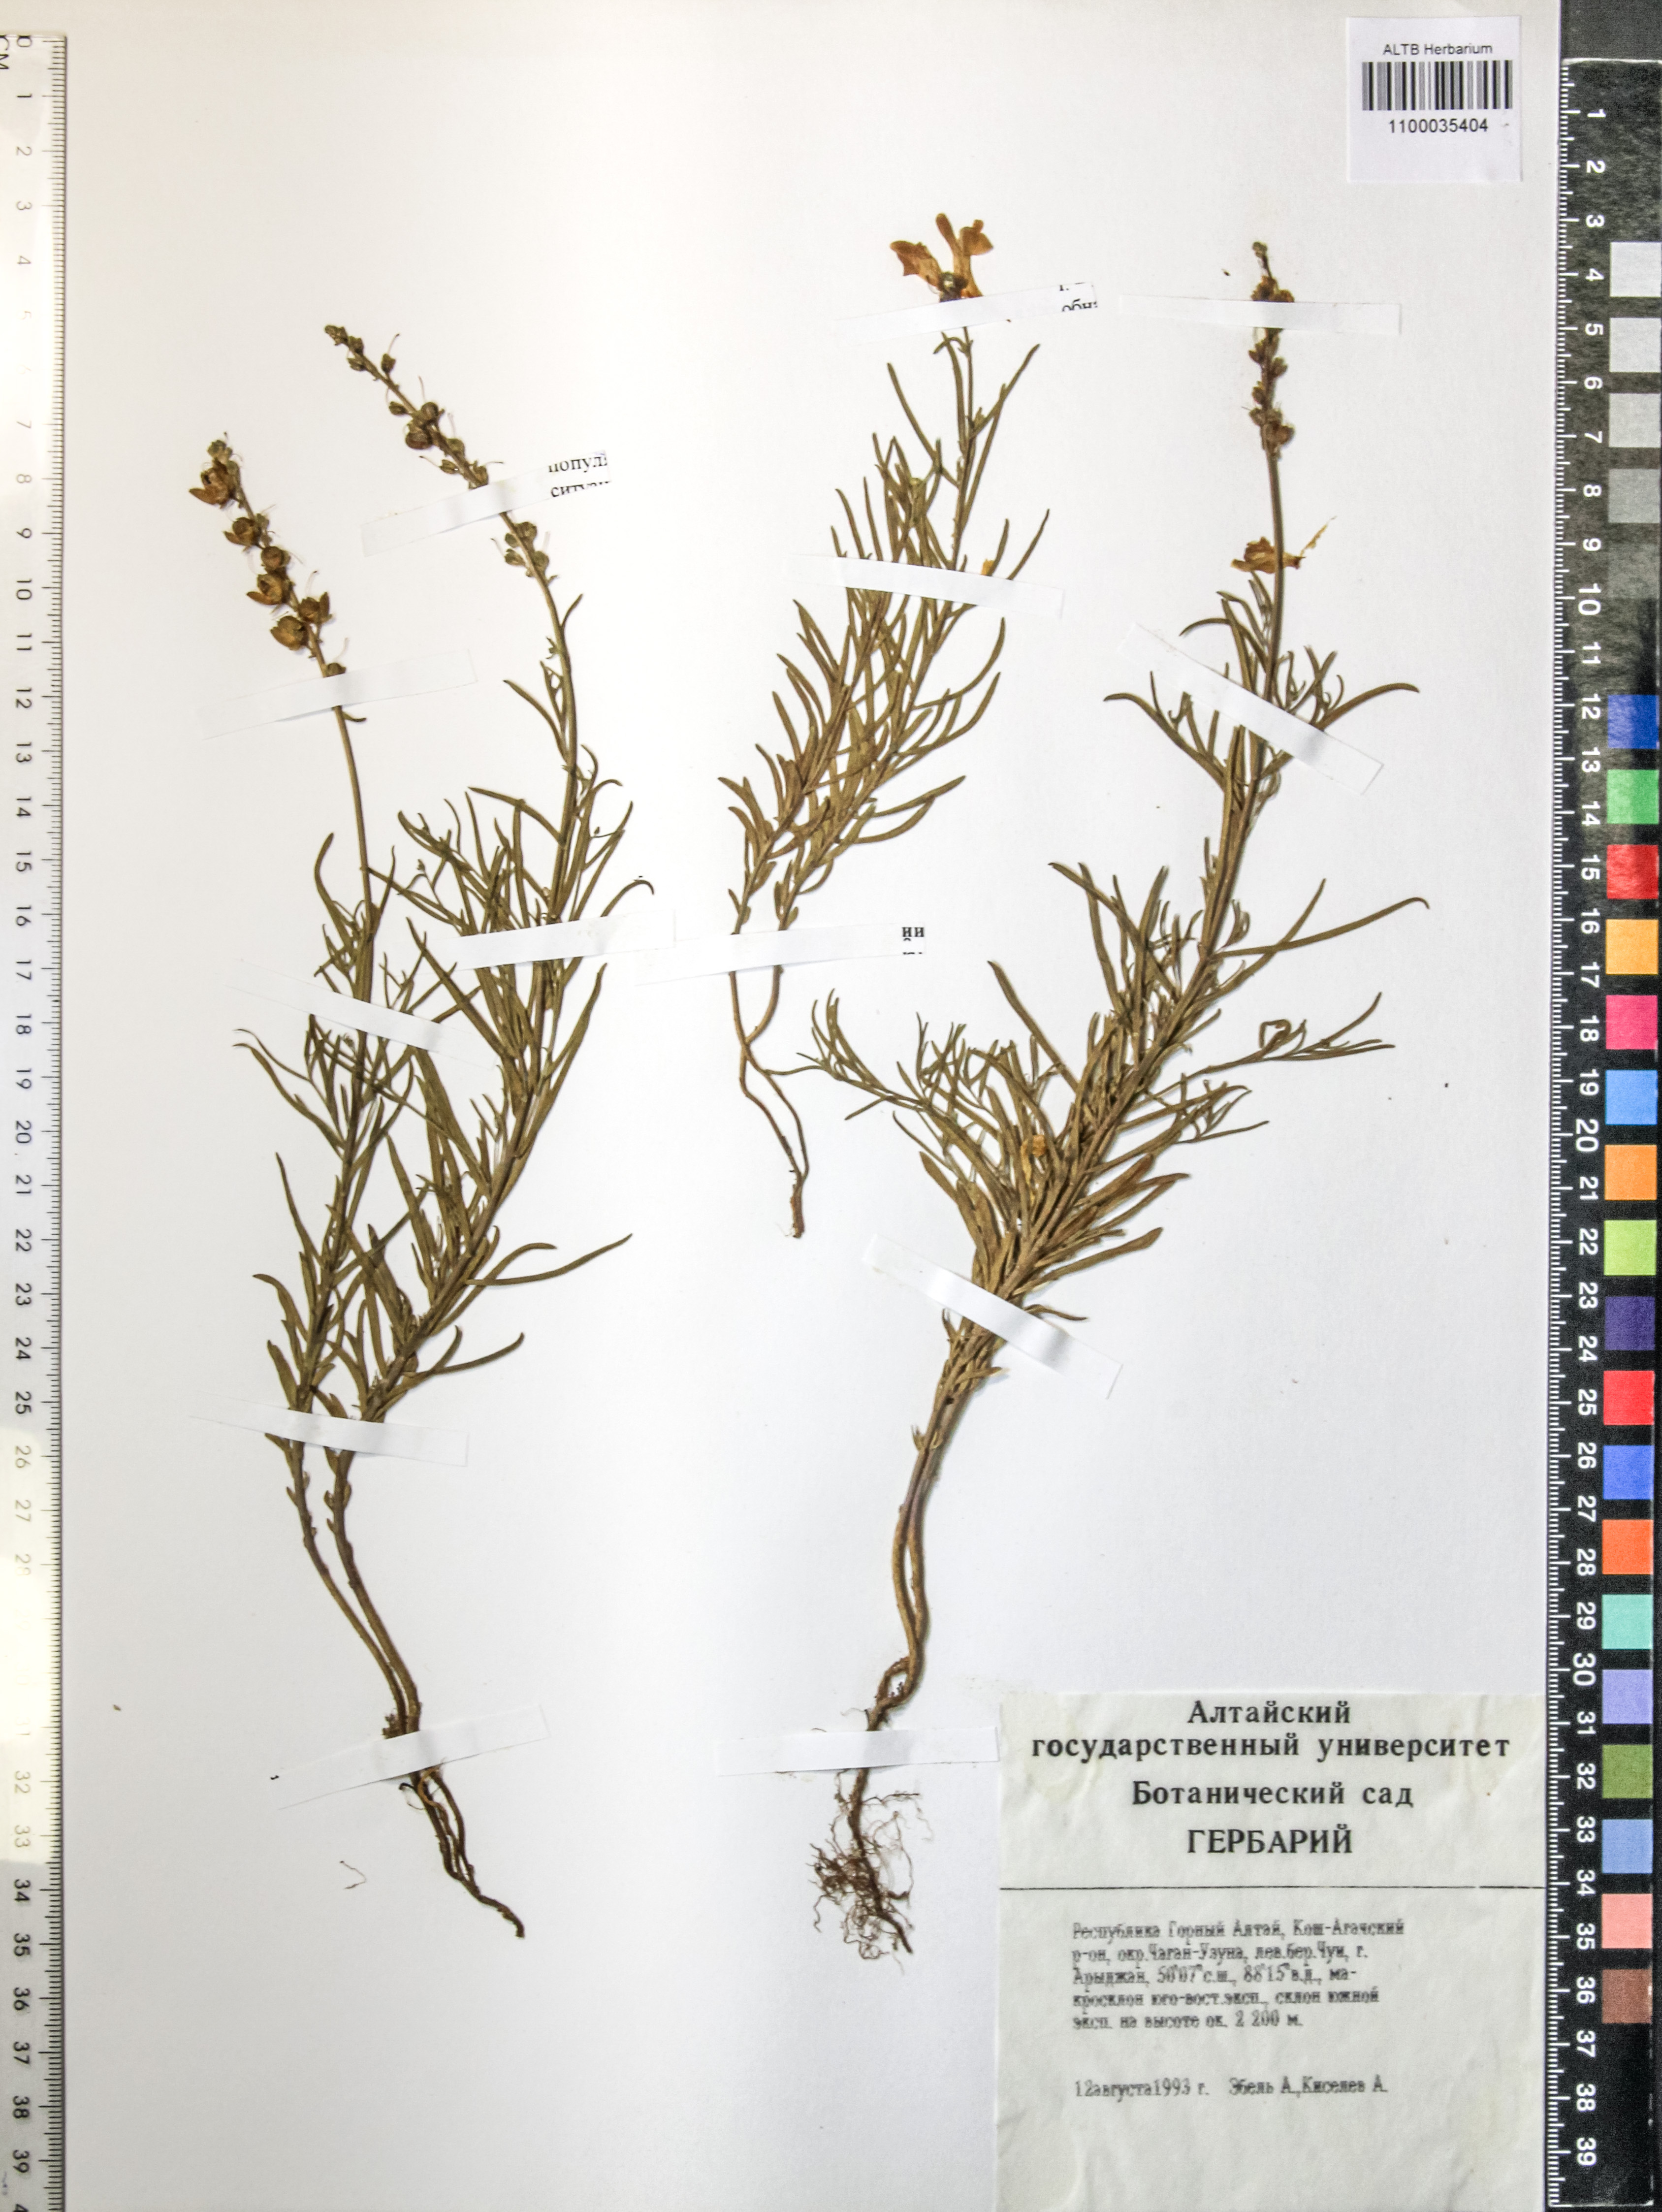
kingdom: Plantae
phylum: Tracheophyta
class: Magnoliopsida
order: Lamiales
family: Plantaginaceae
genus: Linaria
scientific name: Linaria caesia
